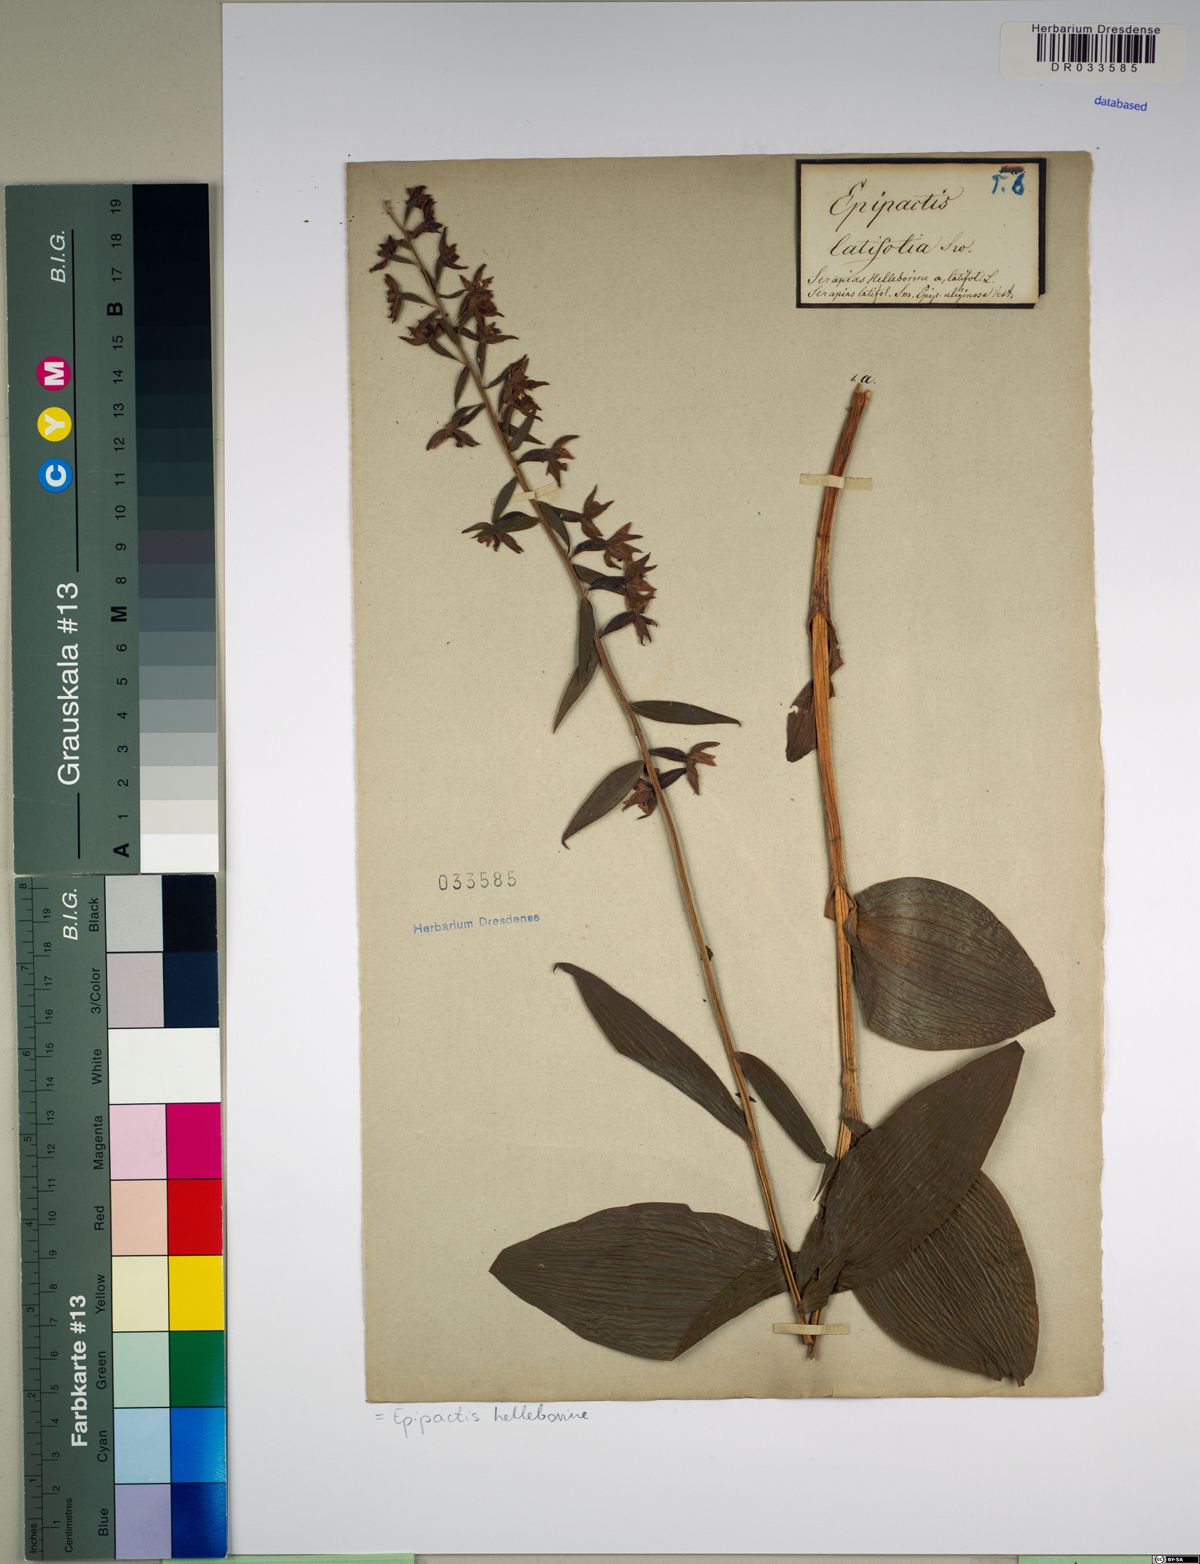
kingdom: Plantae
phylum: Tracheophyta
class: Liliopsida
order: Asparagales
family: Orchidaceae
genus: Epipactis
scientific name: Epipactis helleborine
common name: Broad-leaved helleborine
